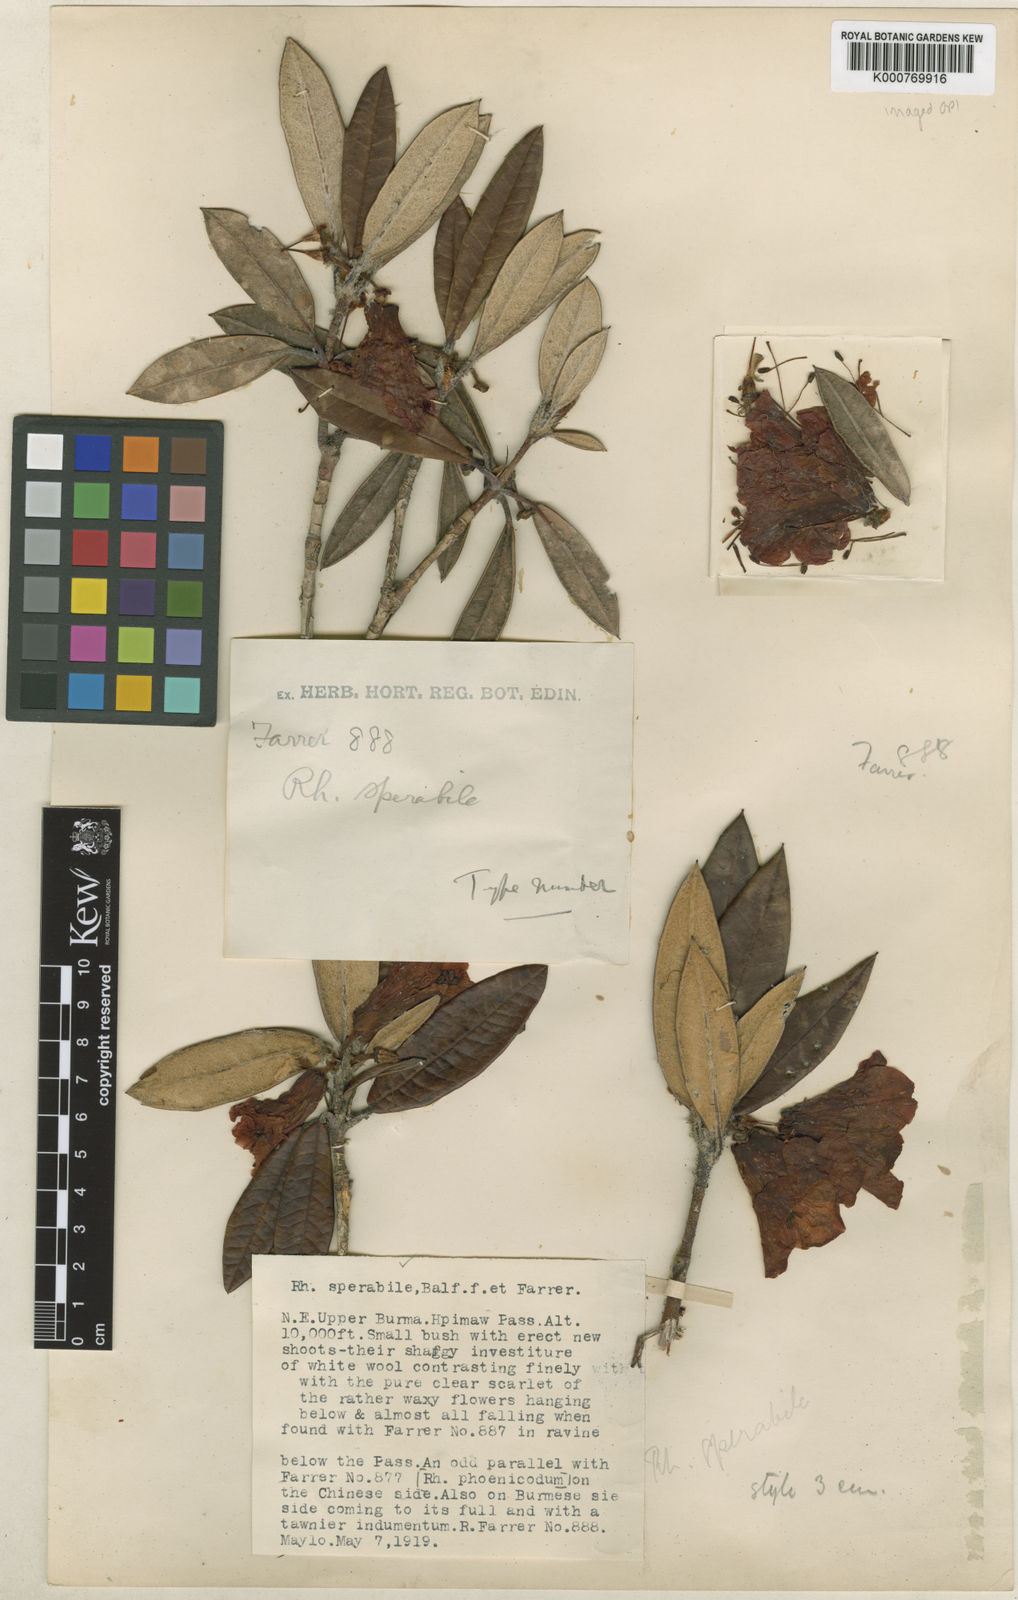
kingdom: Plantae
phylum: Tracheophyta
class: Magnoliopsida
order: Ericales
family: Ericaceae
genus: Rhododendron
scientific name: Rhododendron sperabile
